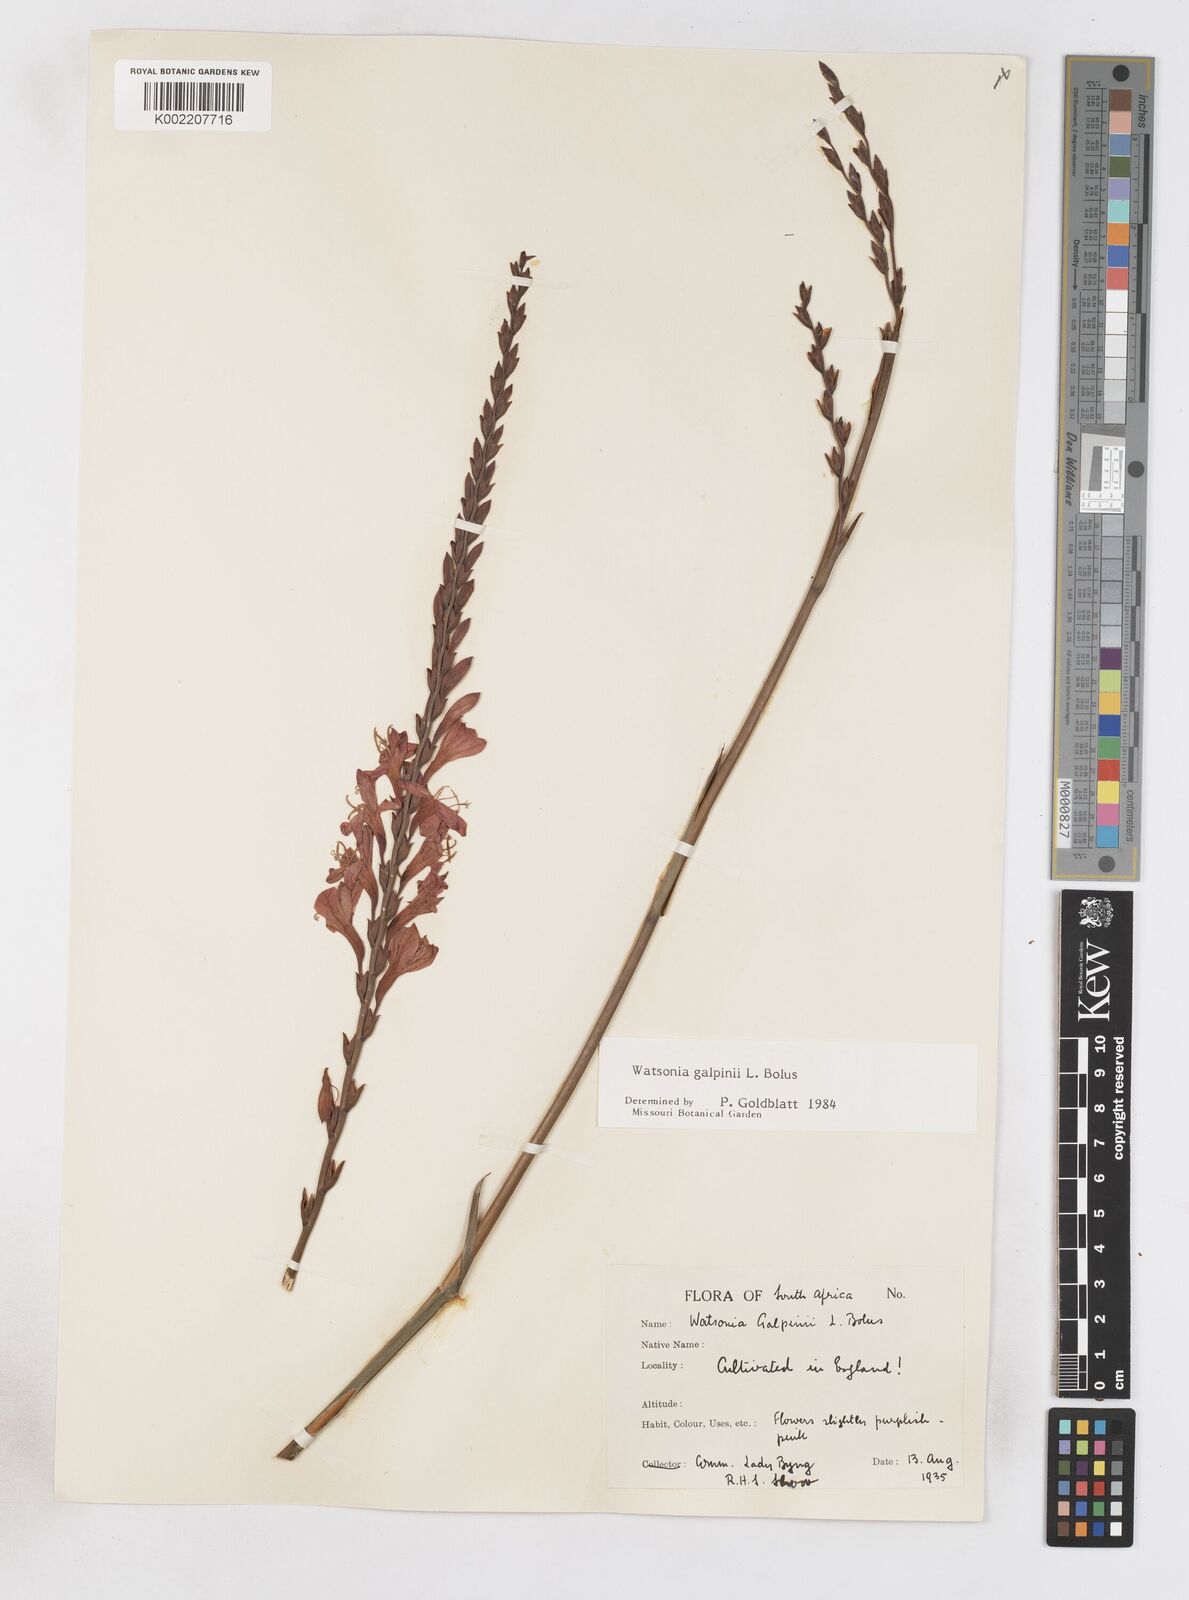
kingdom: Plantae
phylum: Tracheophyta
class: Liliopsida
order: Asparagales
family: Iridaceae
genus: Watsonia
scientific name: Watsonia galpinii
